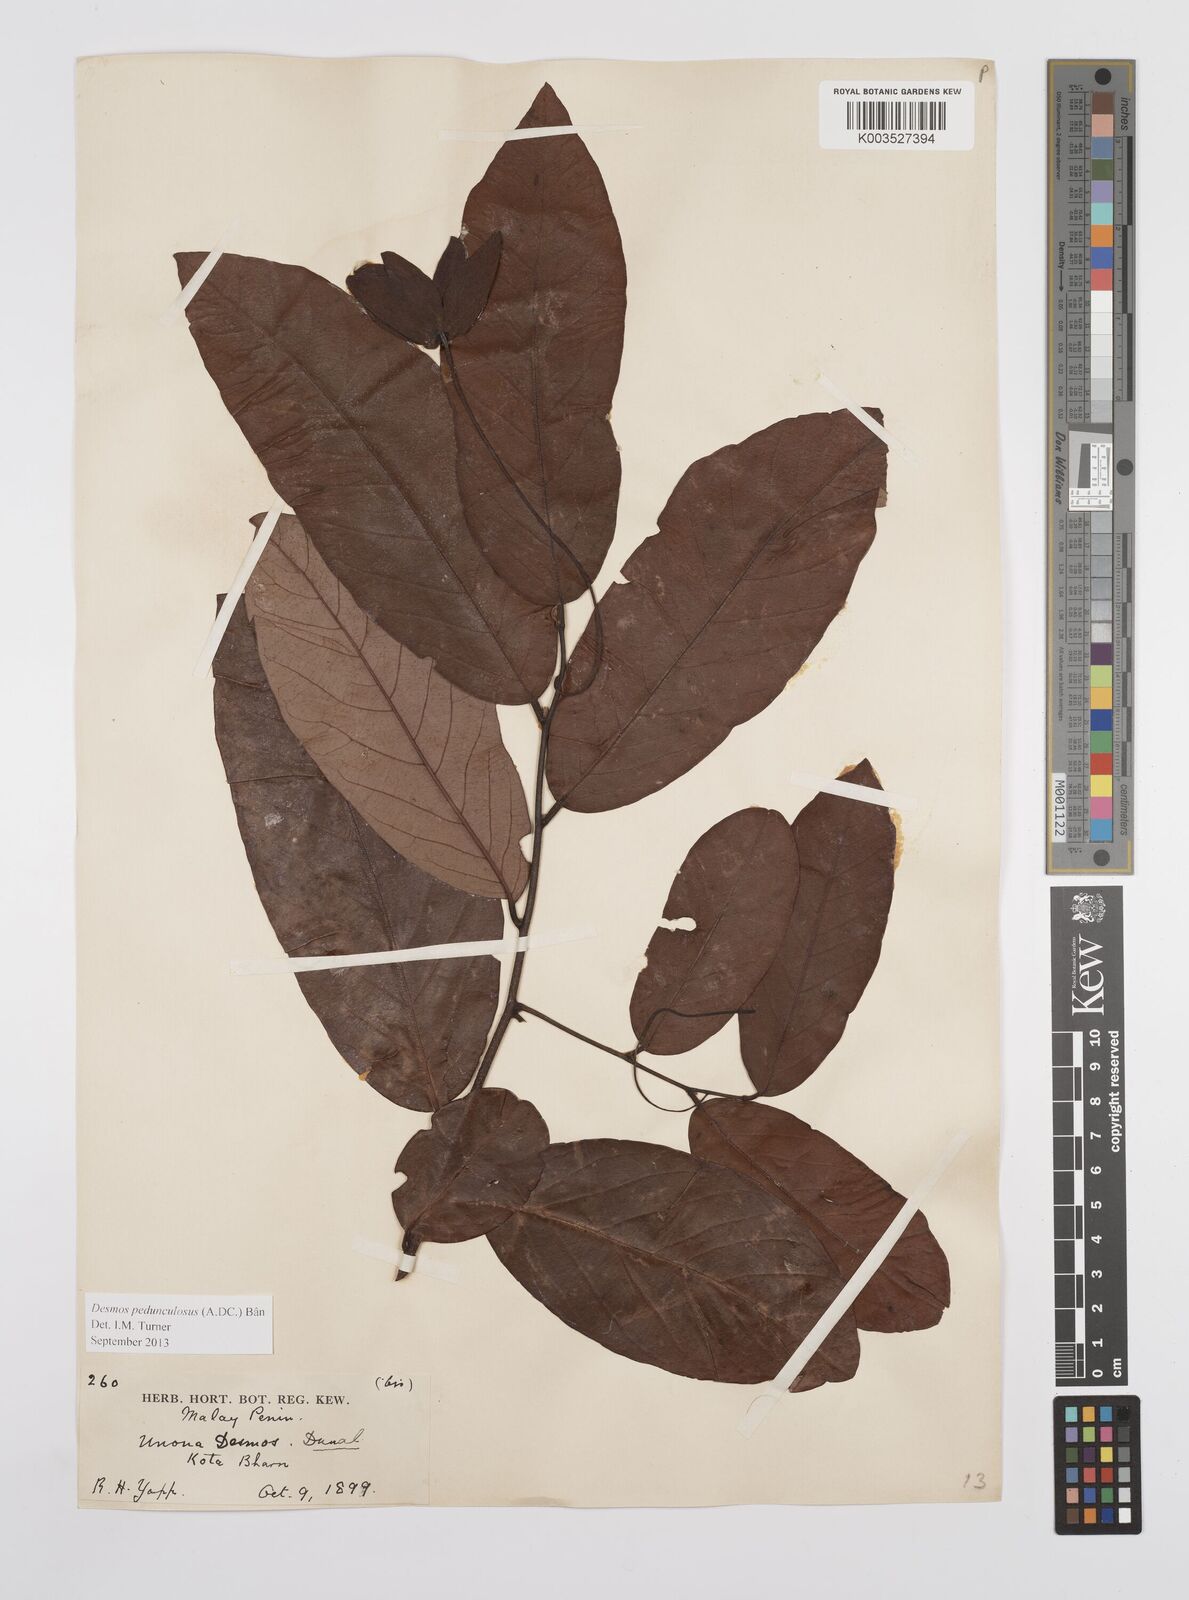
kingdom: Plantae
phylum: Tracheophyta
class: Magnoliopsida
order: Magnoliales
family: Annonaceae
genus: Desmos
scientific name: Desmos cochinchinensis
